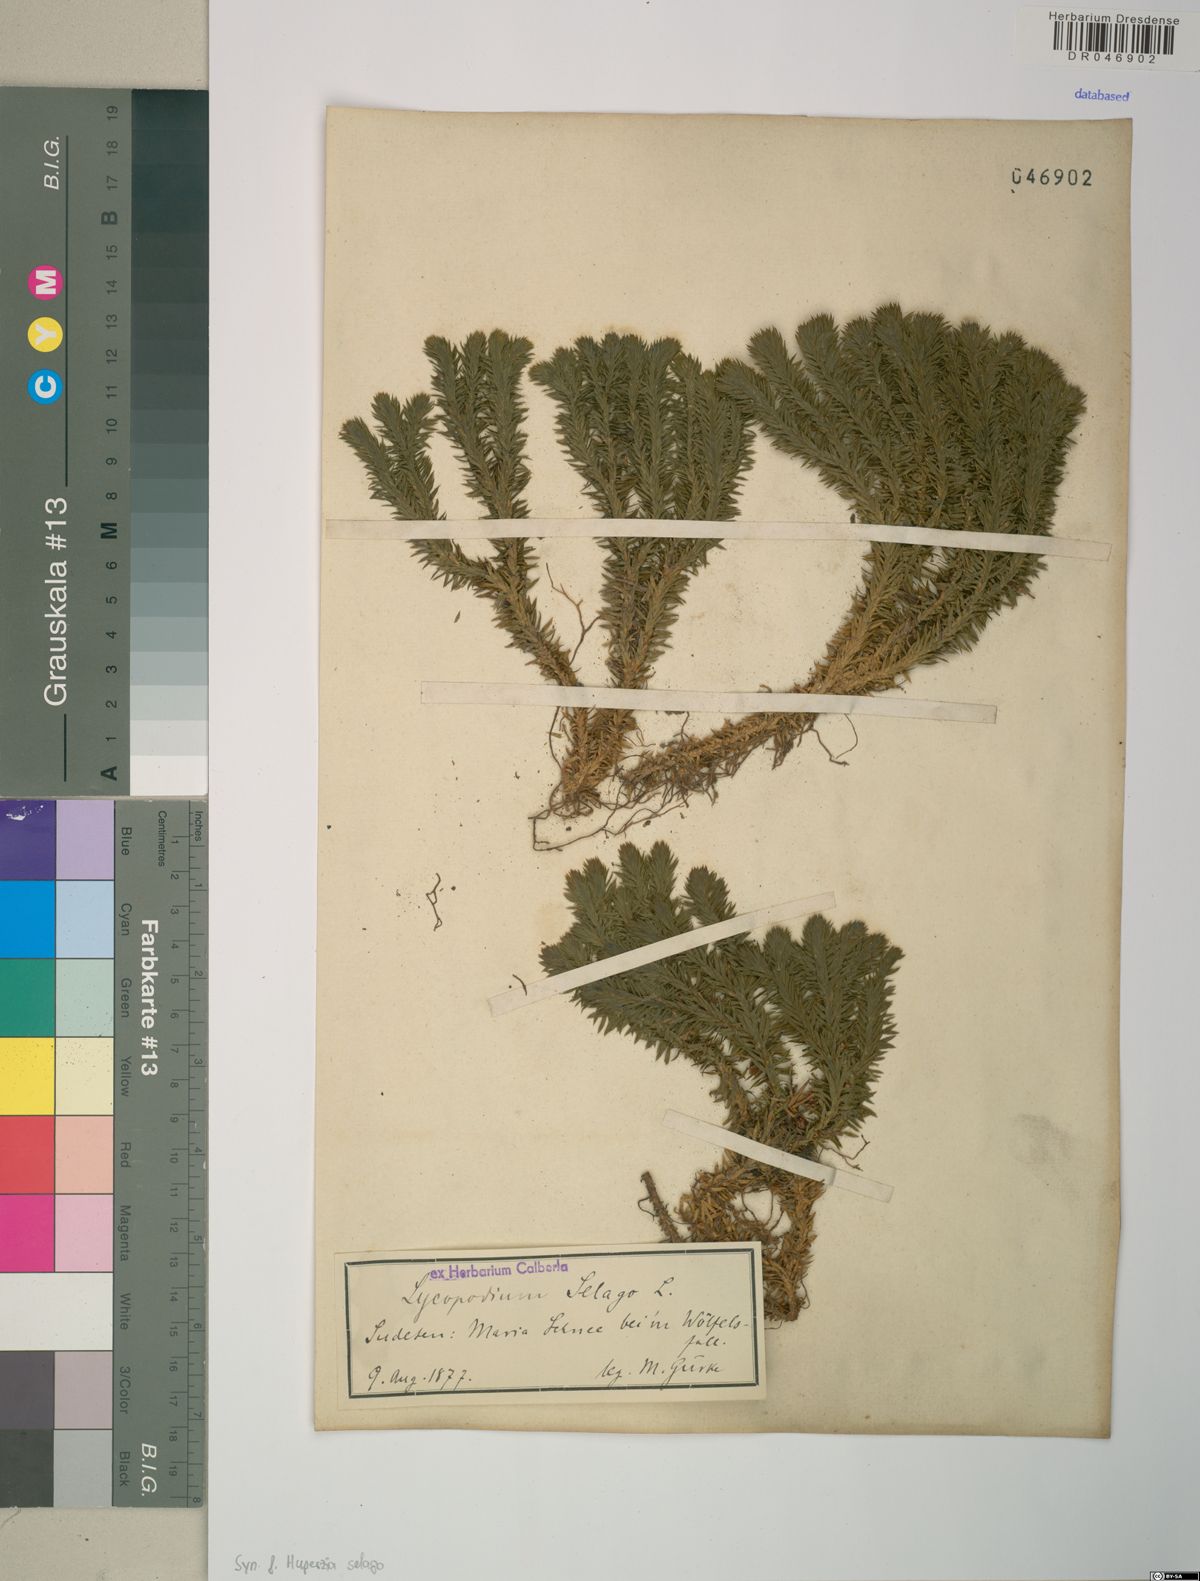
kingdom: Plantae
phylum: Tracheophyta
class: Lycopodiopsida
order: Lycopodiales
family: Lycopodiaceae
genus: Huperzia
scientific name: Huperzia selago
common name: Northern firmoss
